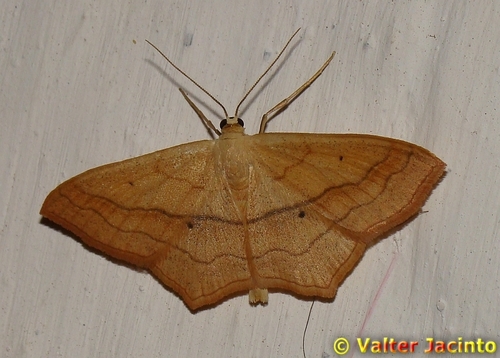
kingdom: Animalia
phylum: Arthropoda
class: Insecta
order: Lepidoptera
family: Geometridae
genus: Scopula
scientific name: Scopula imitaria
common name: Small blood-vein
